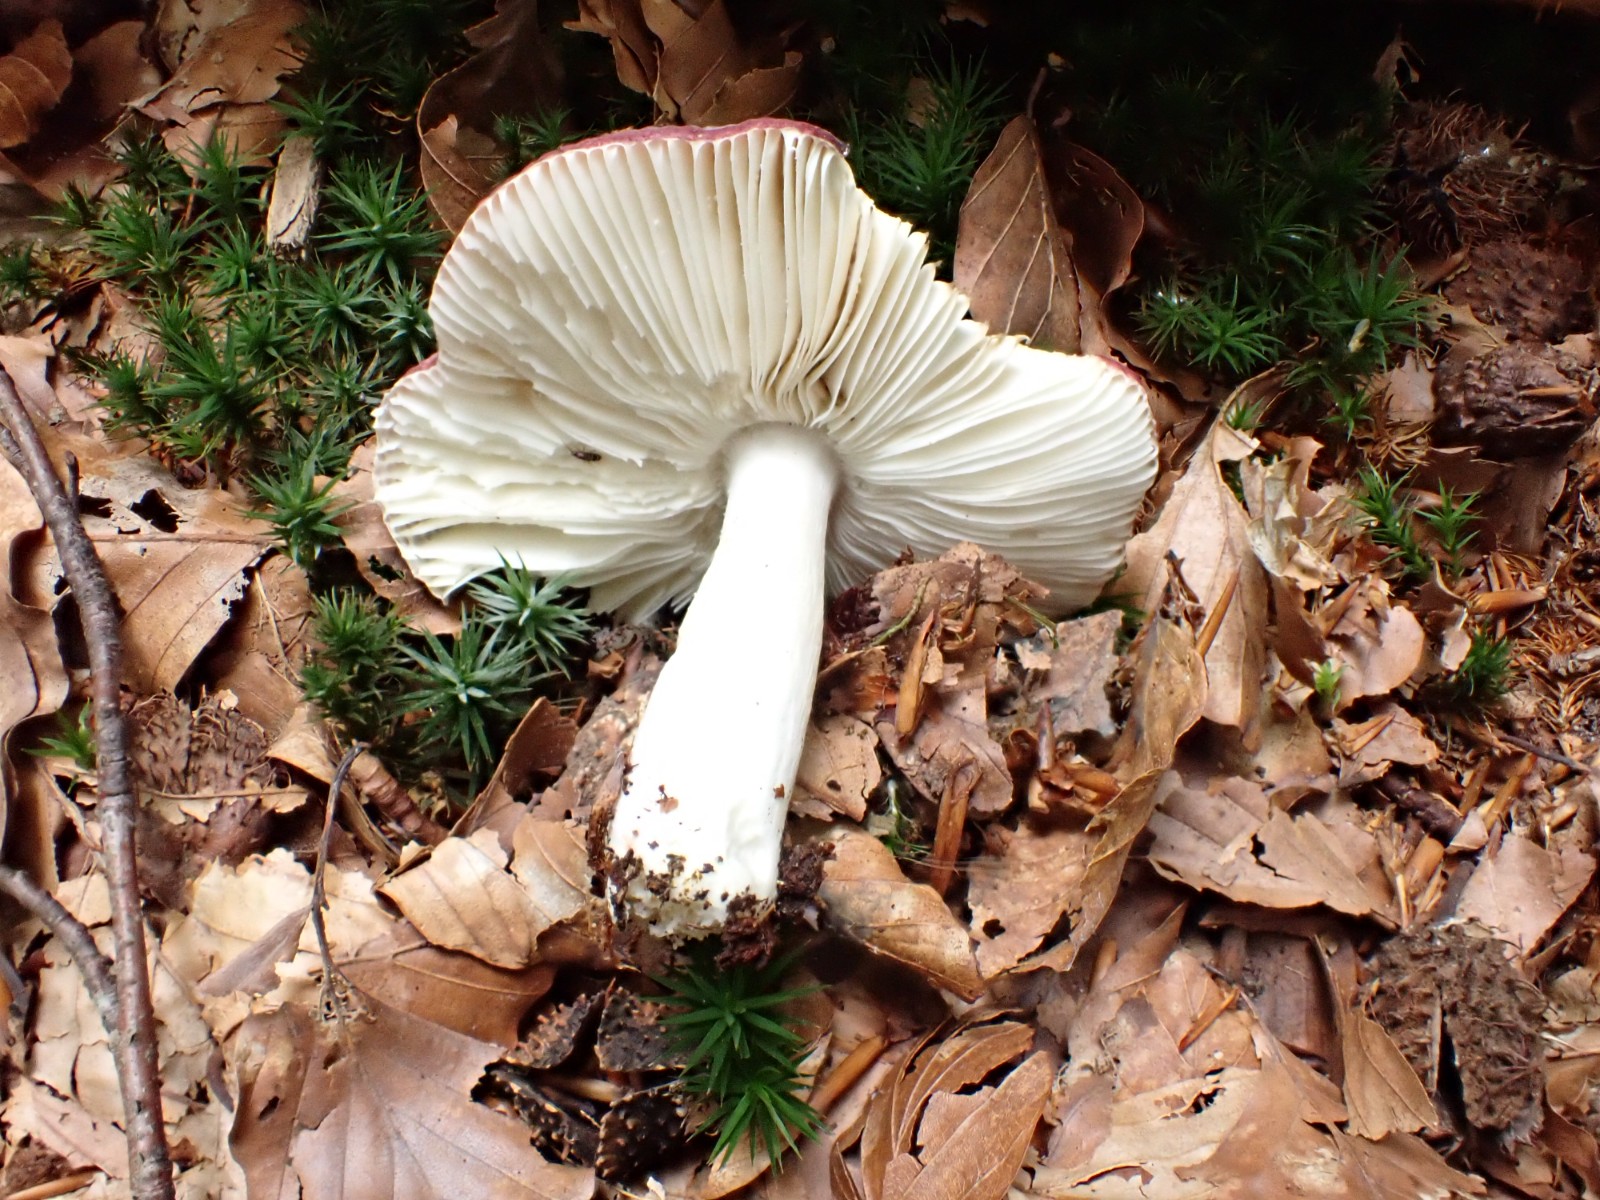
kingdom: Fungi
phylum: Basidiomycota
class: Agaricomycetes
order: Russulales
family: Russulaceae
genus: Russula
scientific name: Russula brunneoviolacea
